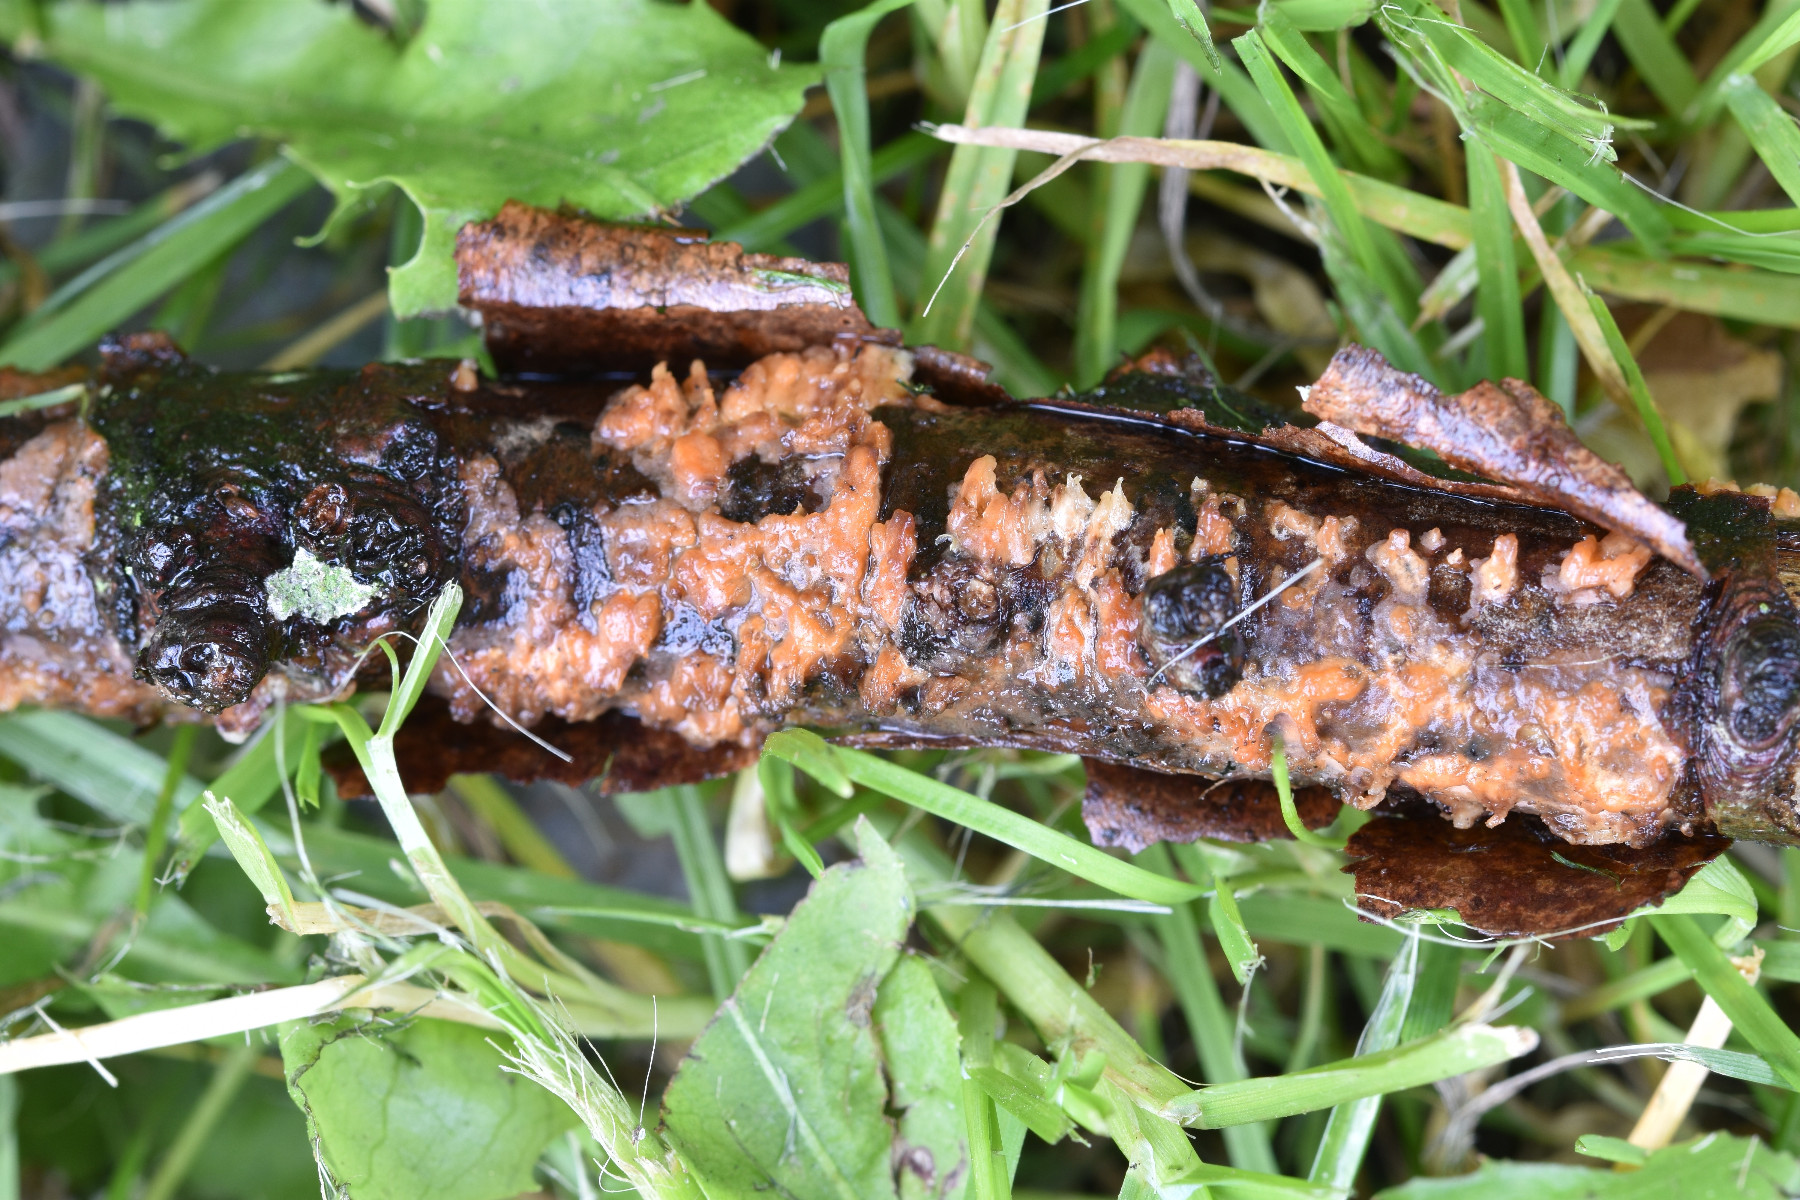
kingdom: Fungi
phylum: Basidiomycota
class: Agaricomycetes
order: Russulales
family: Peniophoraceae
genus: Peniophora
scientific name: Peniophora laeta
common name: tandet voksskind
